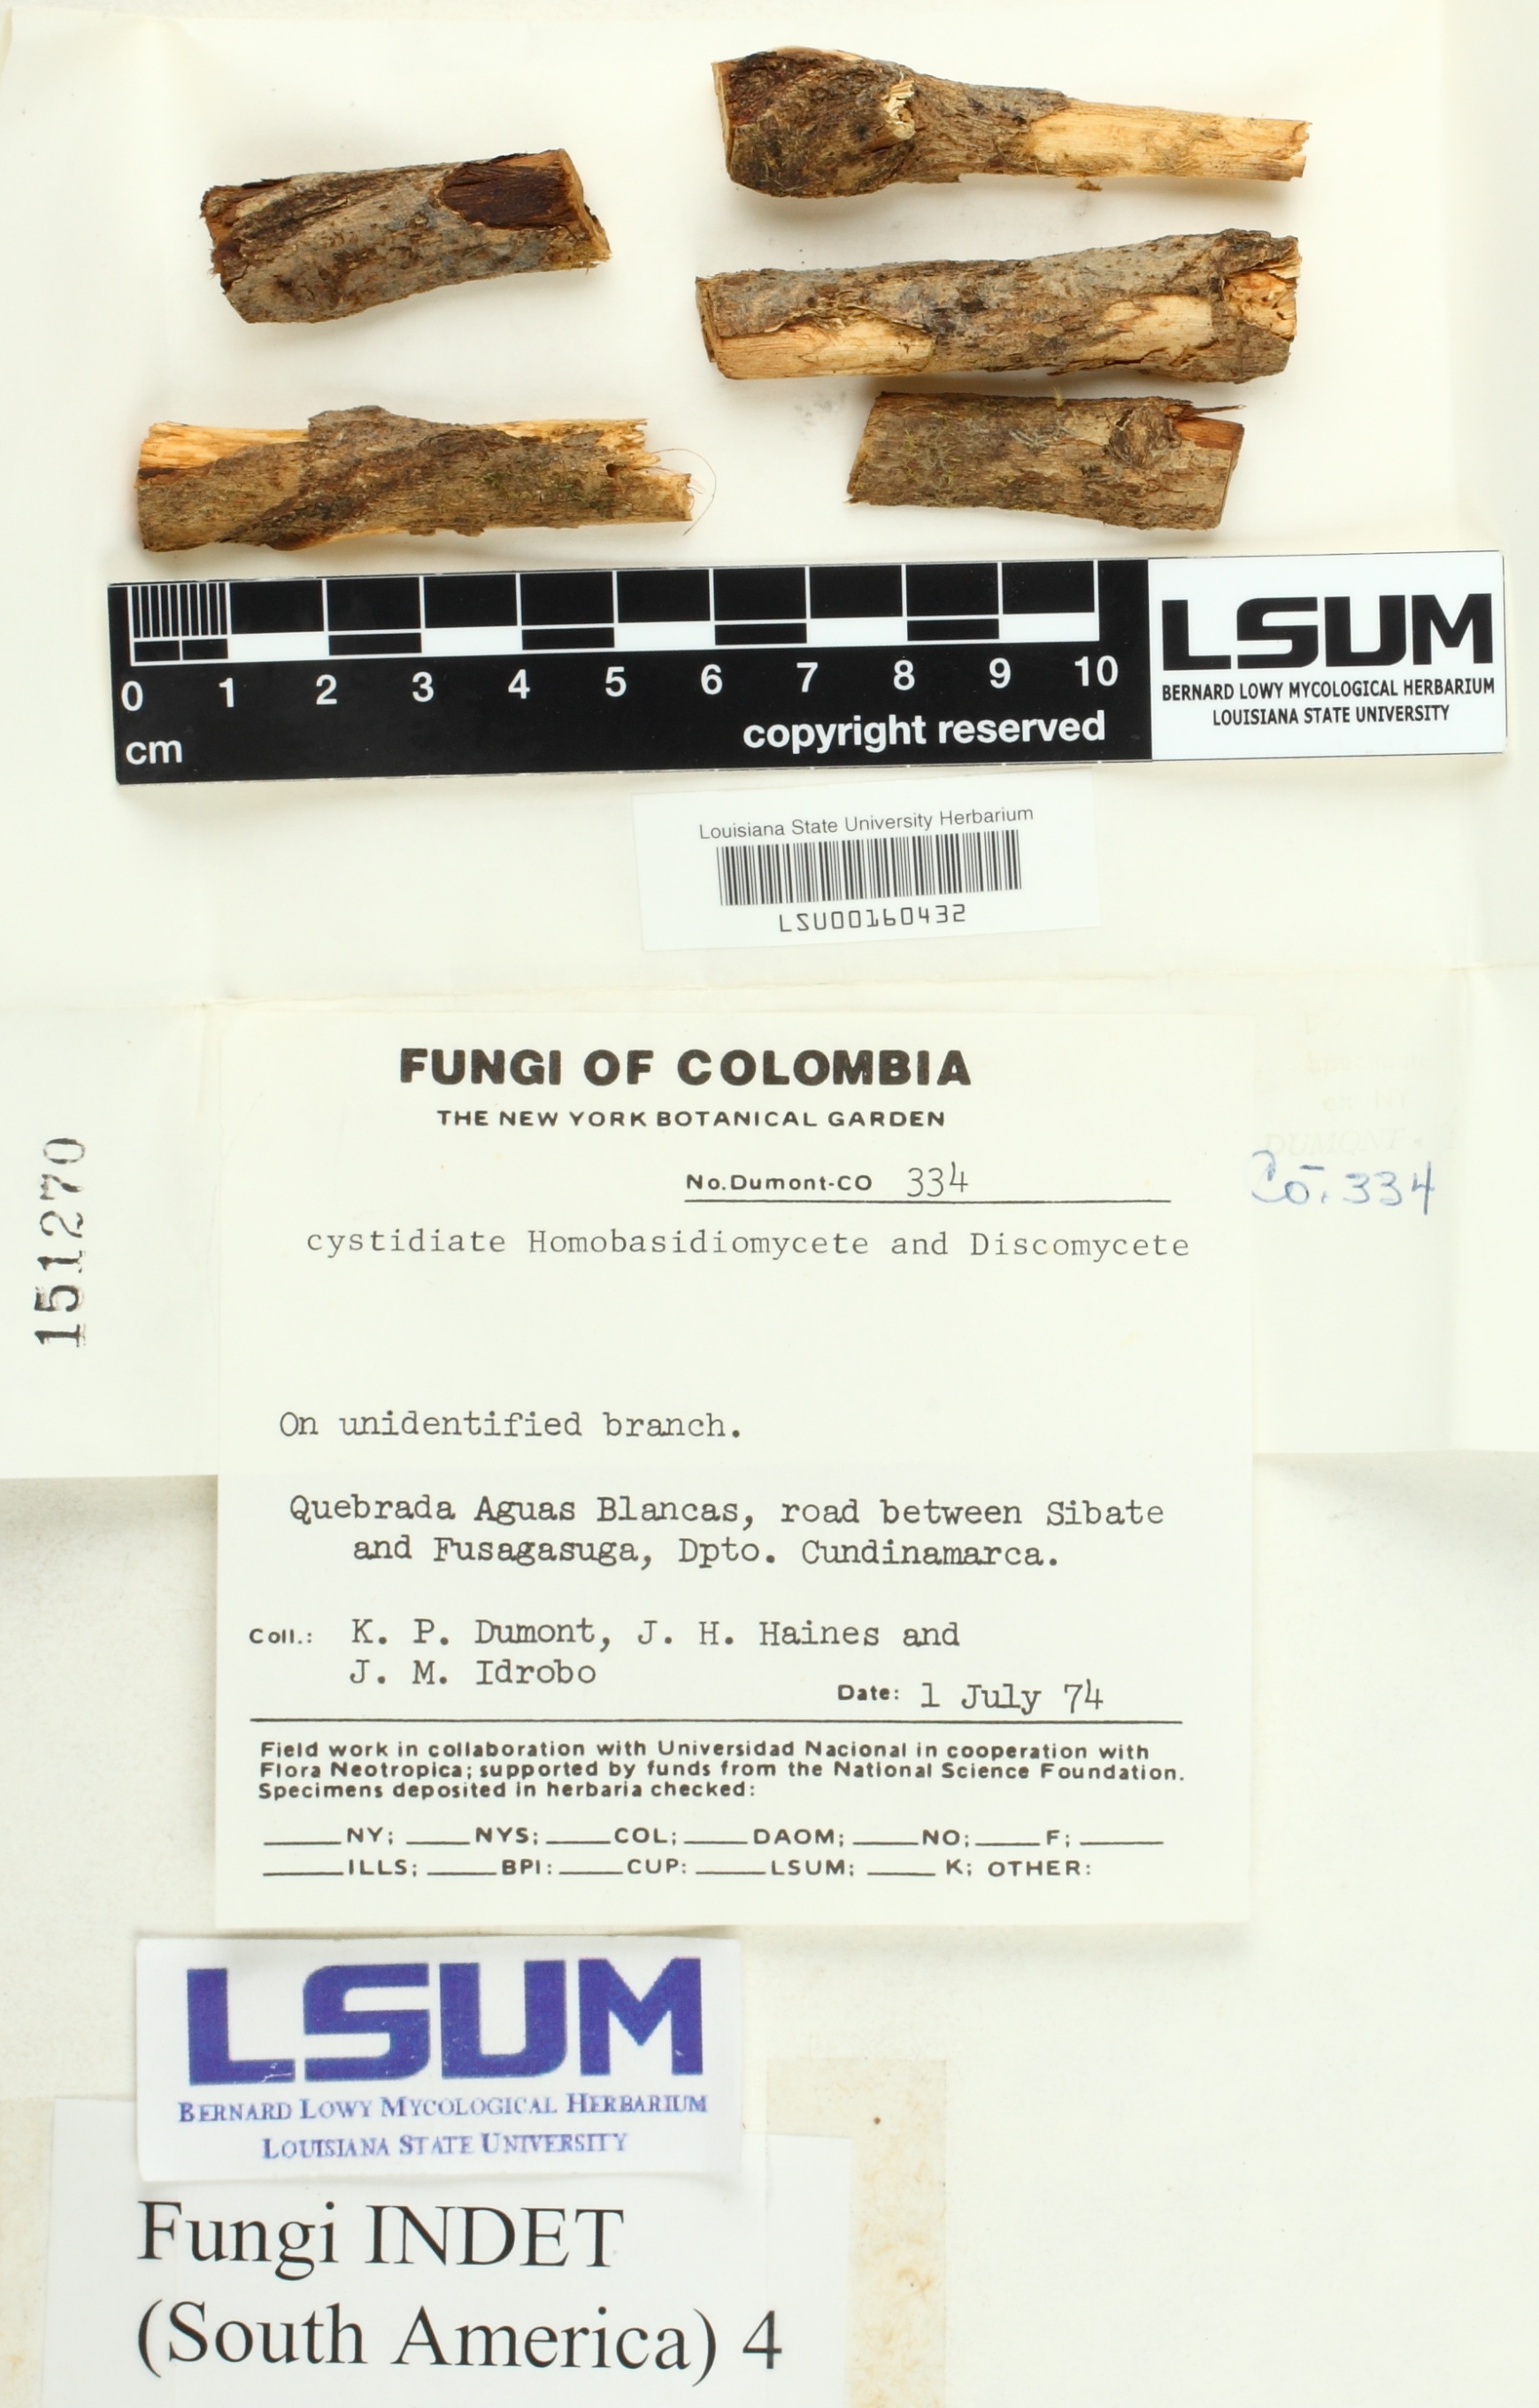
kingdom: Fungi
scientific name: Fungi
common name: Fungi
